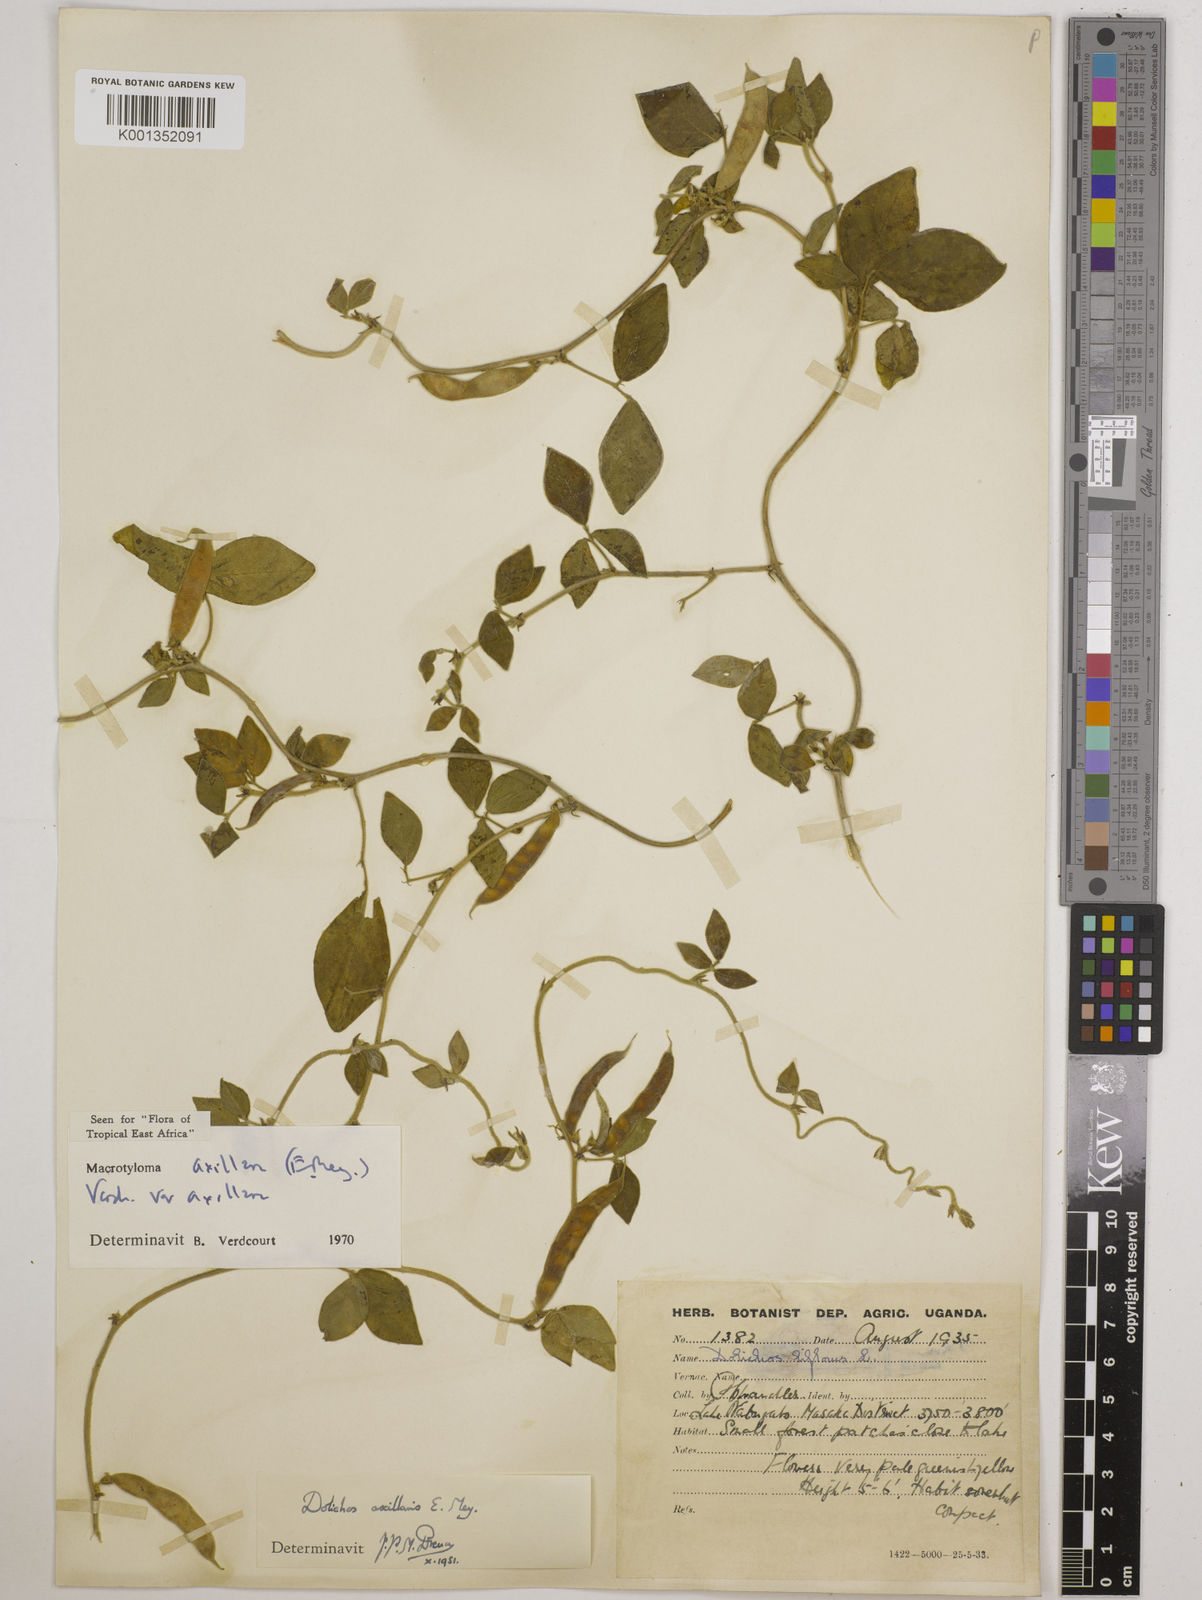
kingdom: Plantae
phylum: Tracheophyta
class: Magnoliopsida
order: Fabales
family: Fabaceae
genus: Macrotyloma
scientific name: Macrotyloma axillare
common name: Perennial horsegram
